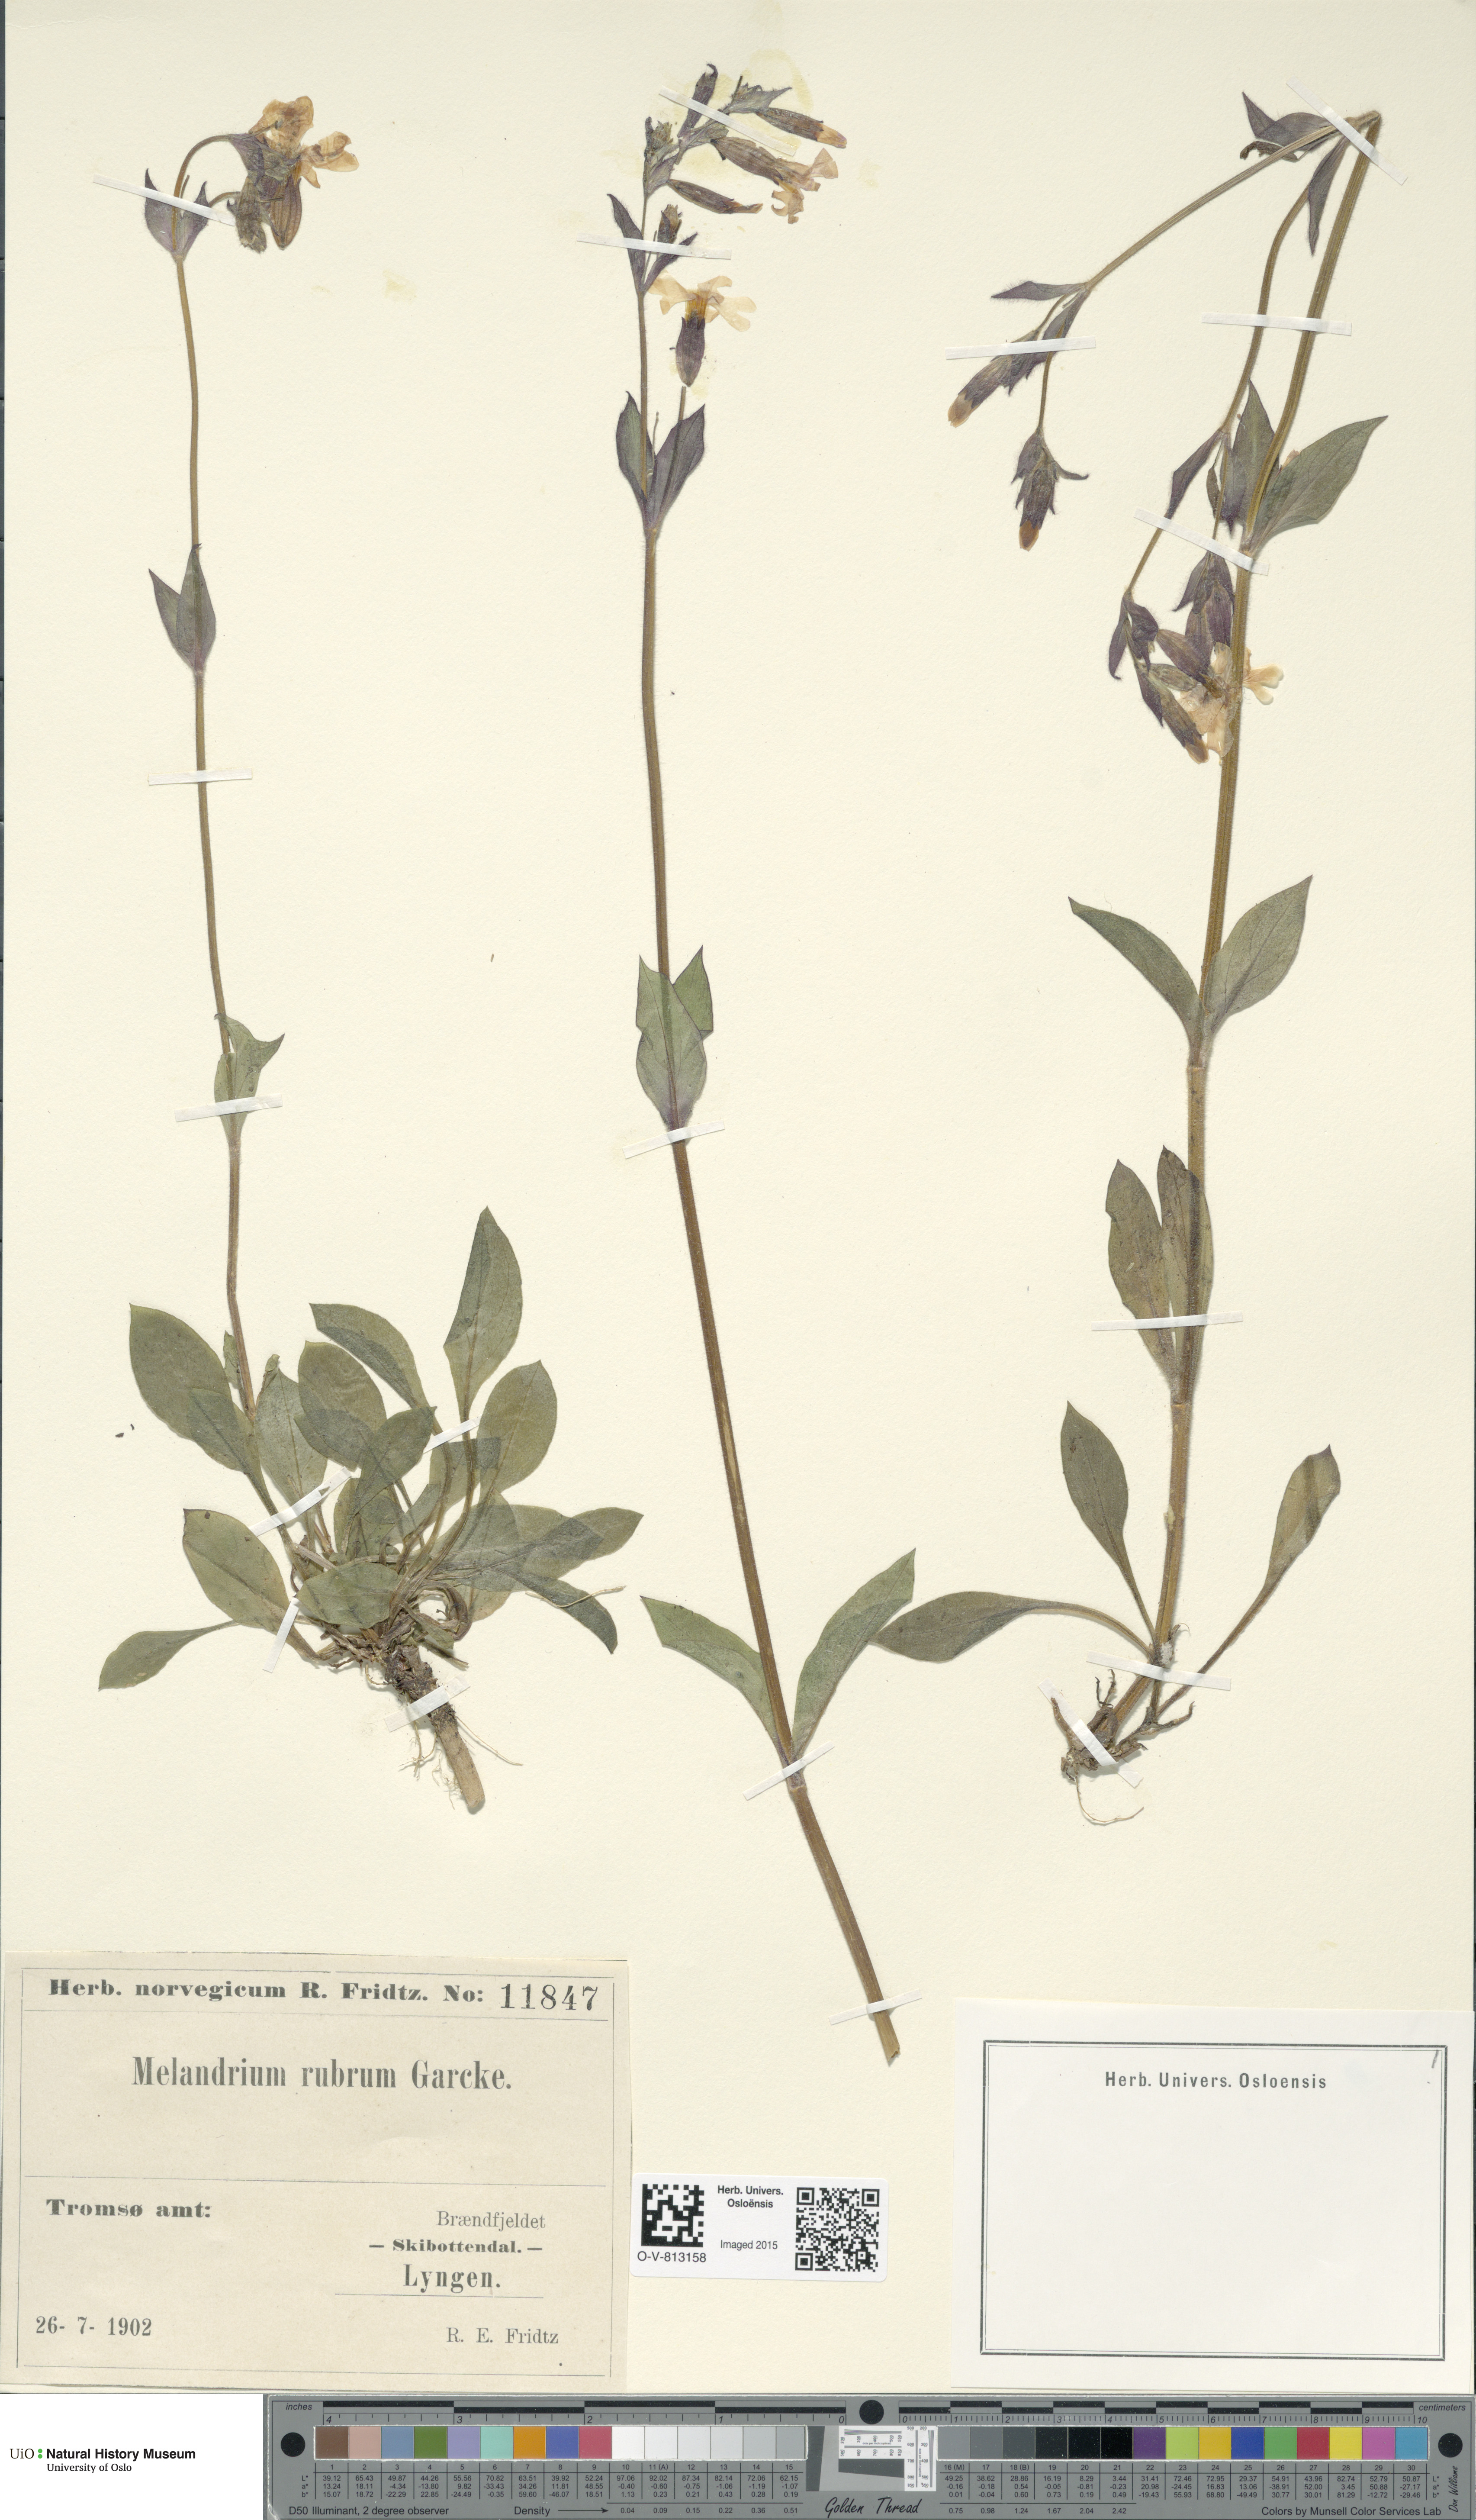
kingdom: Plantae
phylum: Tracheophyta
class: Magnoliopsida
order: Caryophyllales
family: Caryophyllaceae
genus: Silene
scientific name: Silene dioica
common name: Red campion
